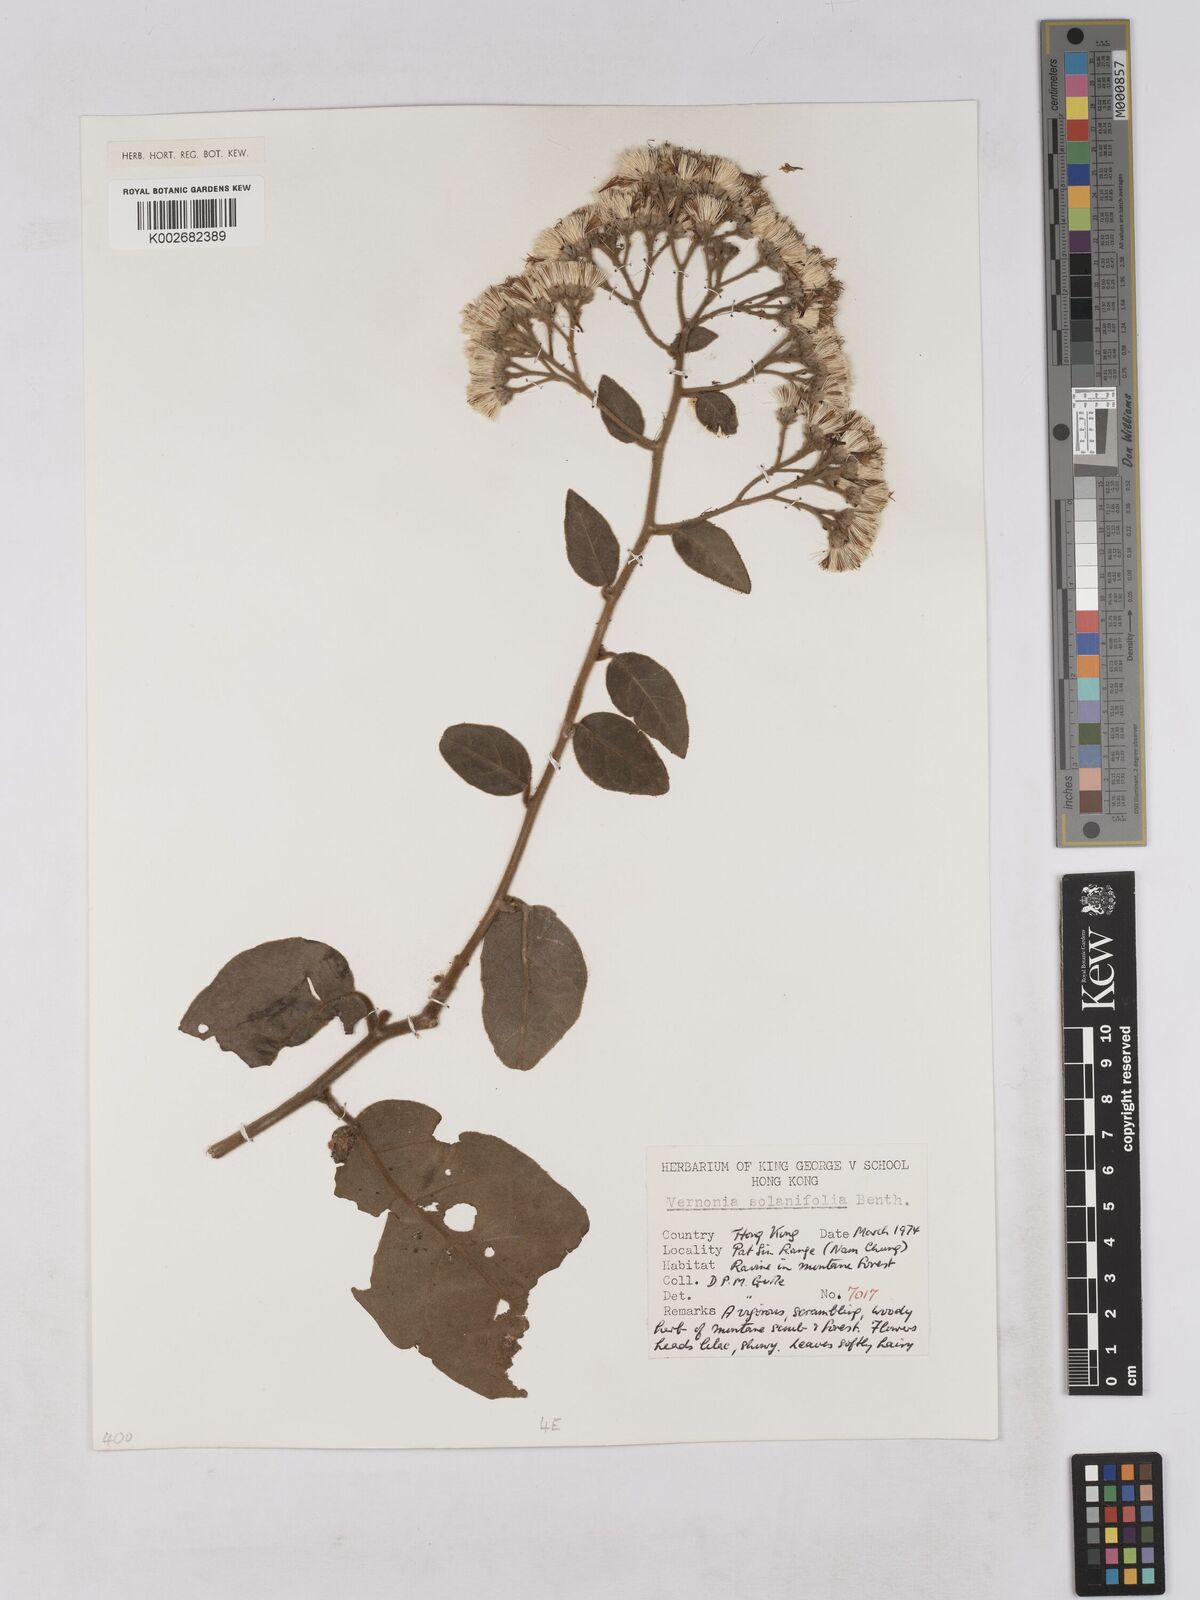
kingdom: Plantae
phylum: Tracheophyta
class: Magnoliopsida
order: Asterales
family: Asteraceae
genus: Strobocalyx
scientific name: Strobocalyx solanifolia
